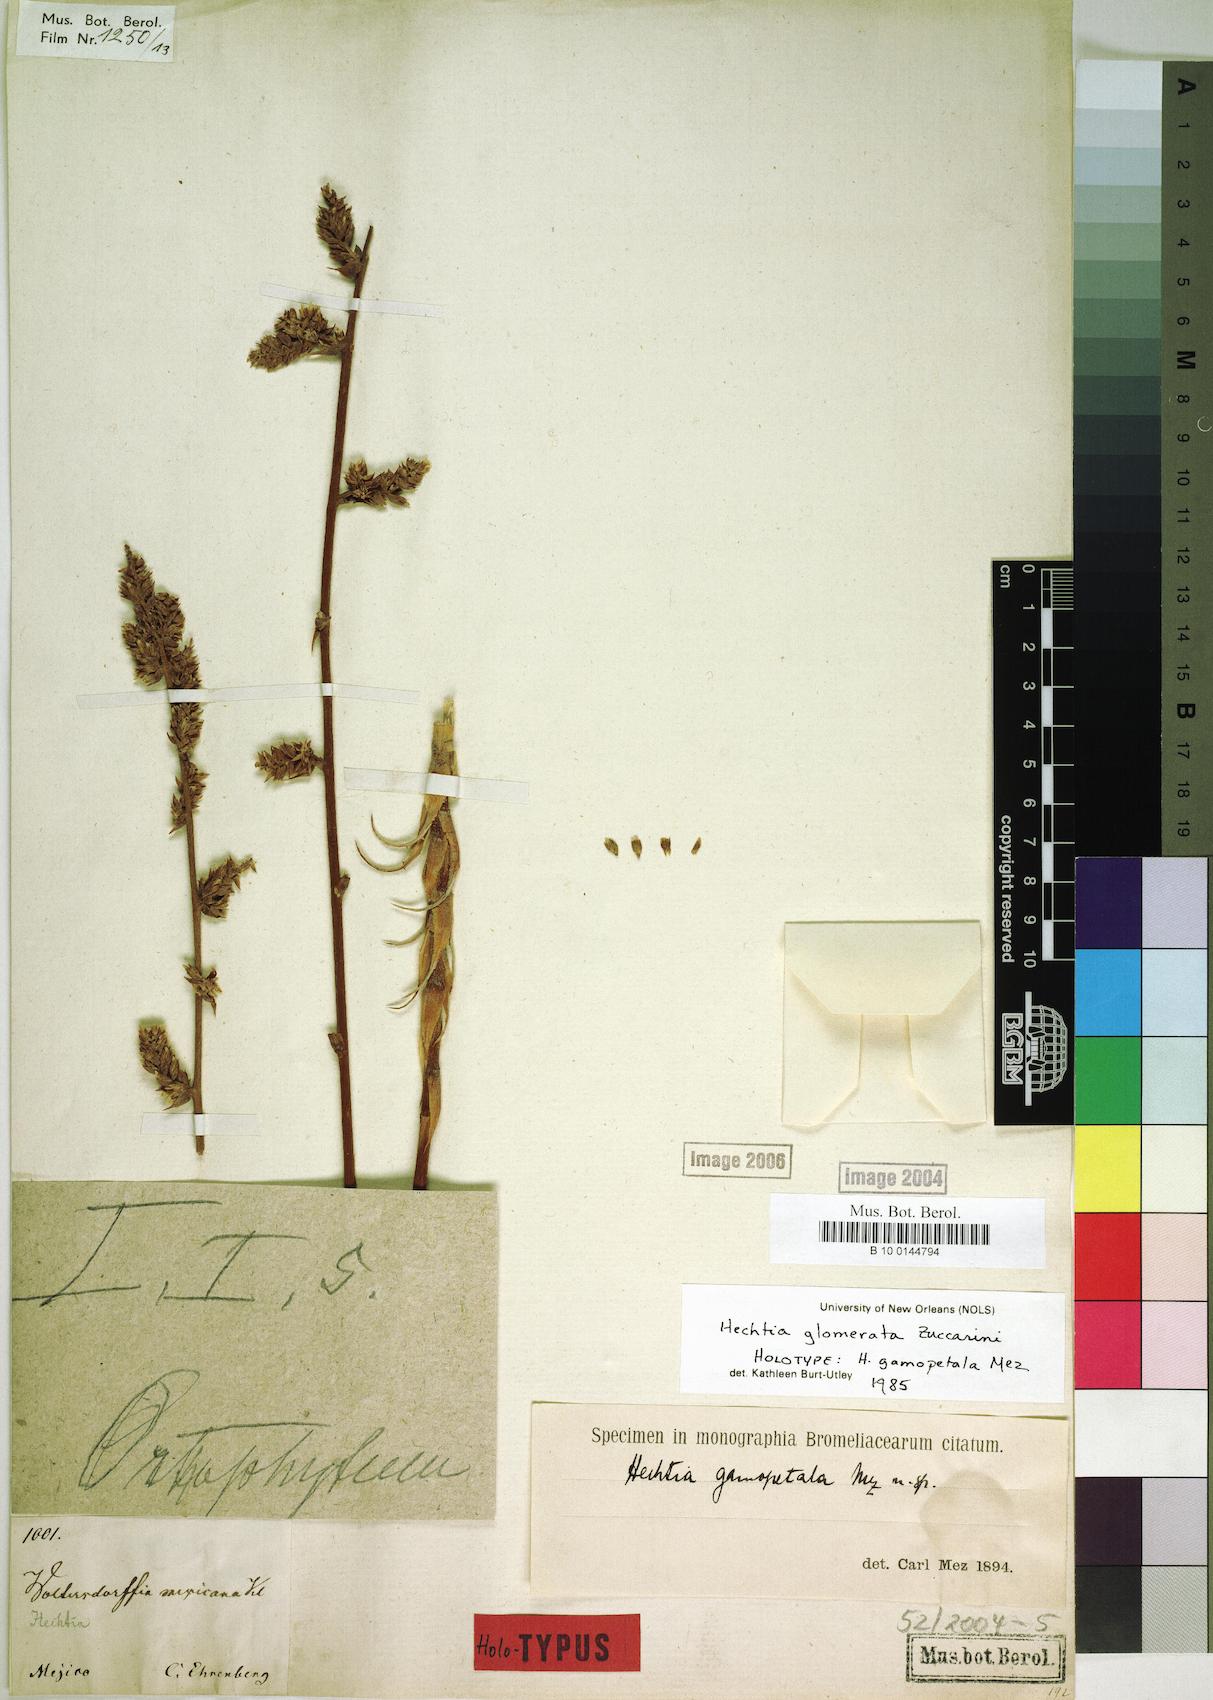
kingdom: Plantae
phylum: Tracheophyta
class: Liliopsida
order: Poales
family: Bromeliaceae
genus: Hechtia
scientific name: Hechtia glomerata
